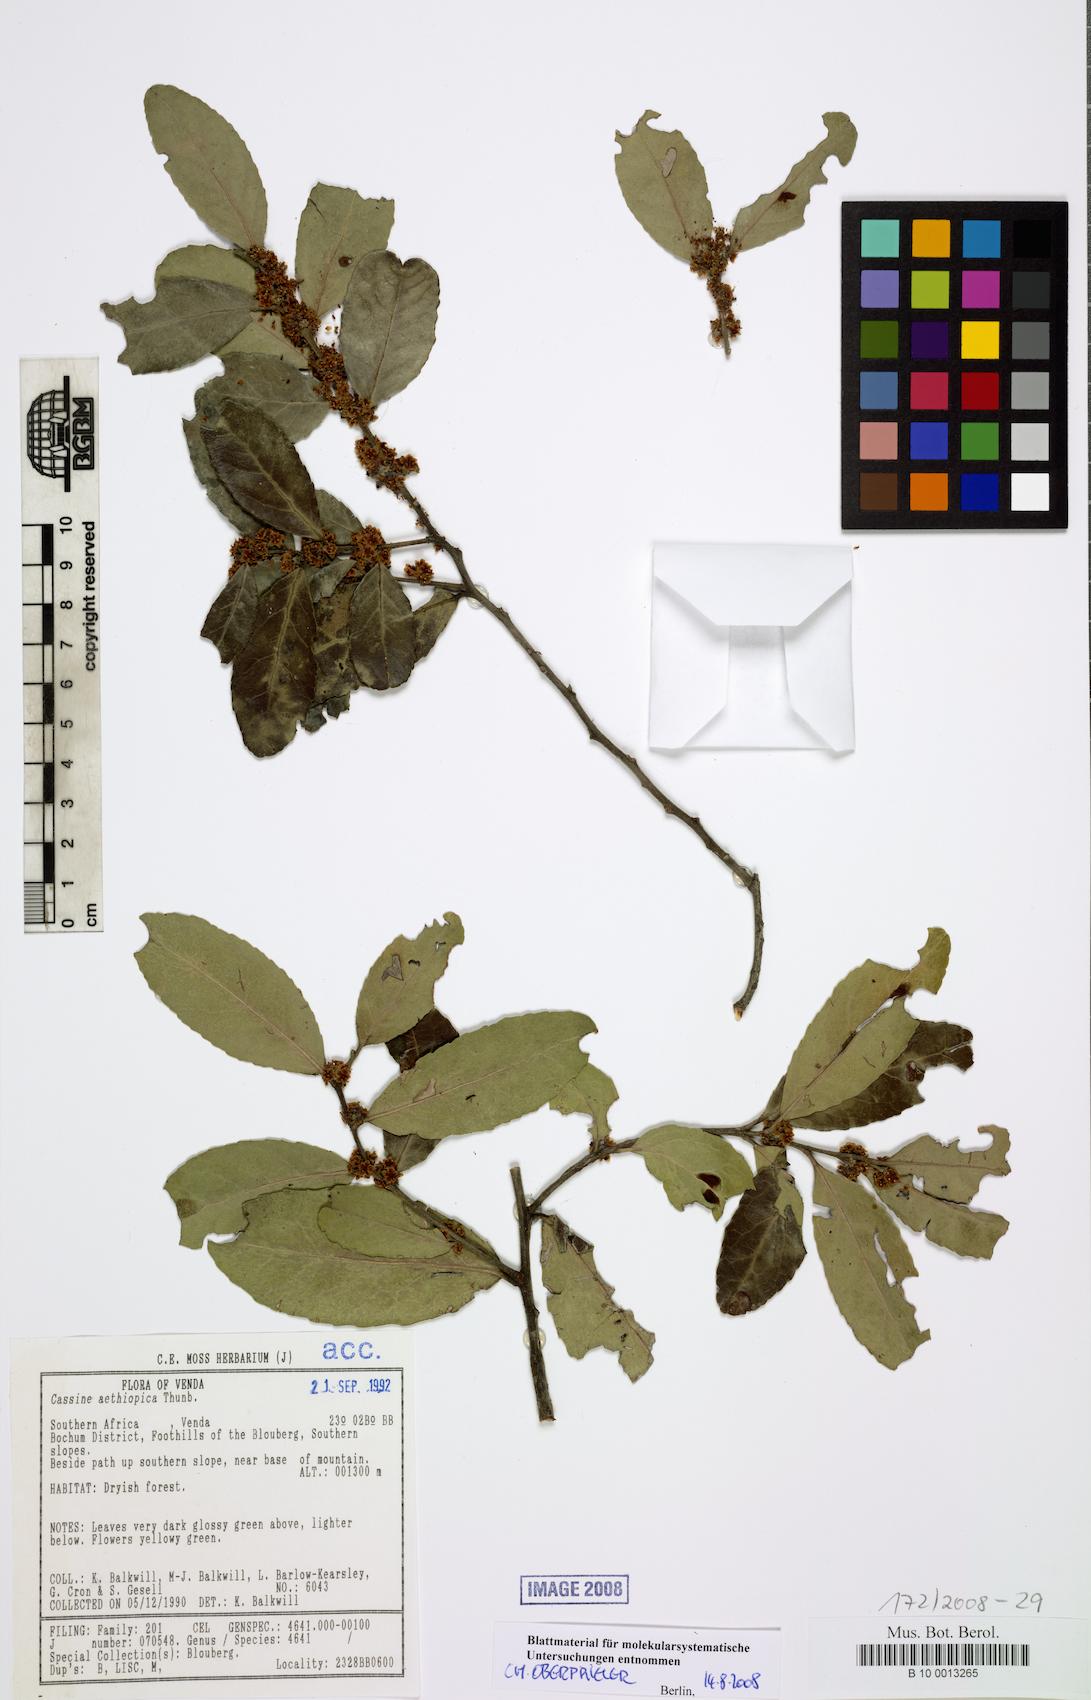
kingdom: Plantae
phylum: Tracheophyta
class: Magnoliopsida
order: Celastrales
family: Celastraceae
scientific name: Celastraceae
